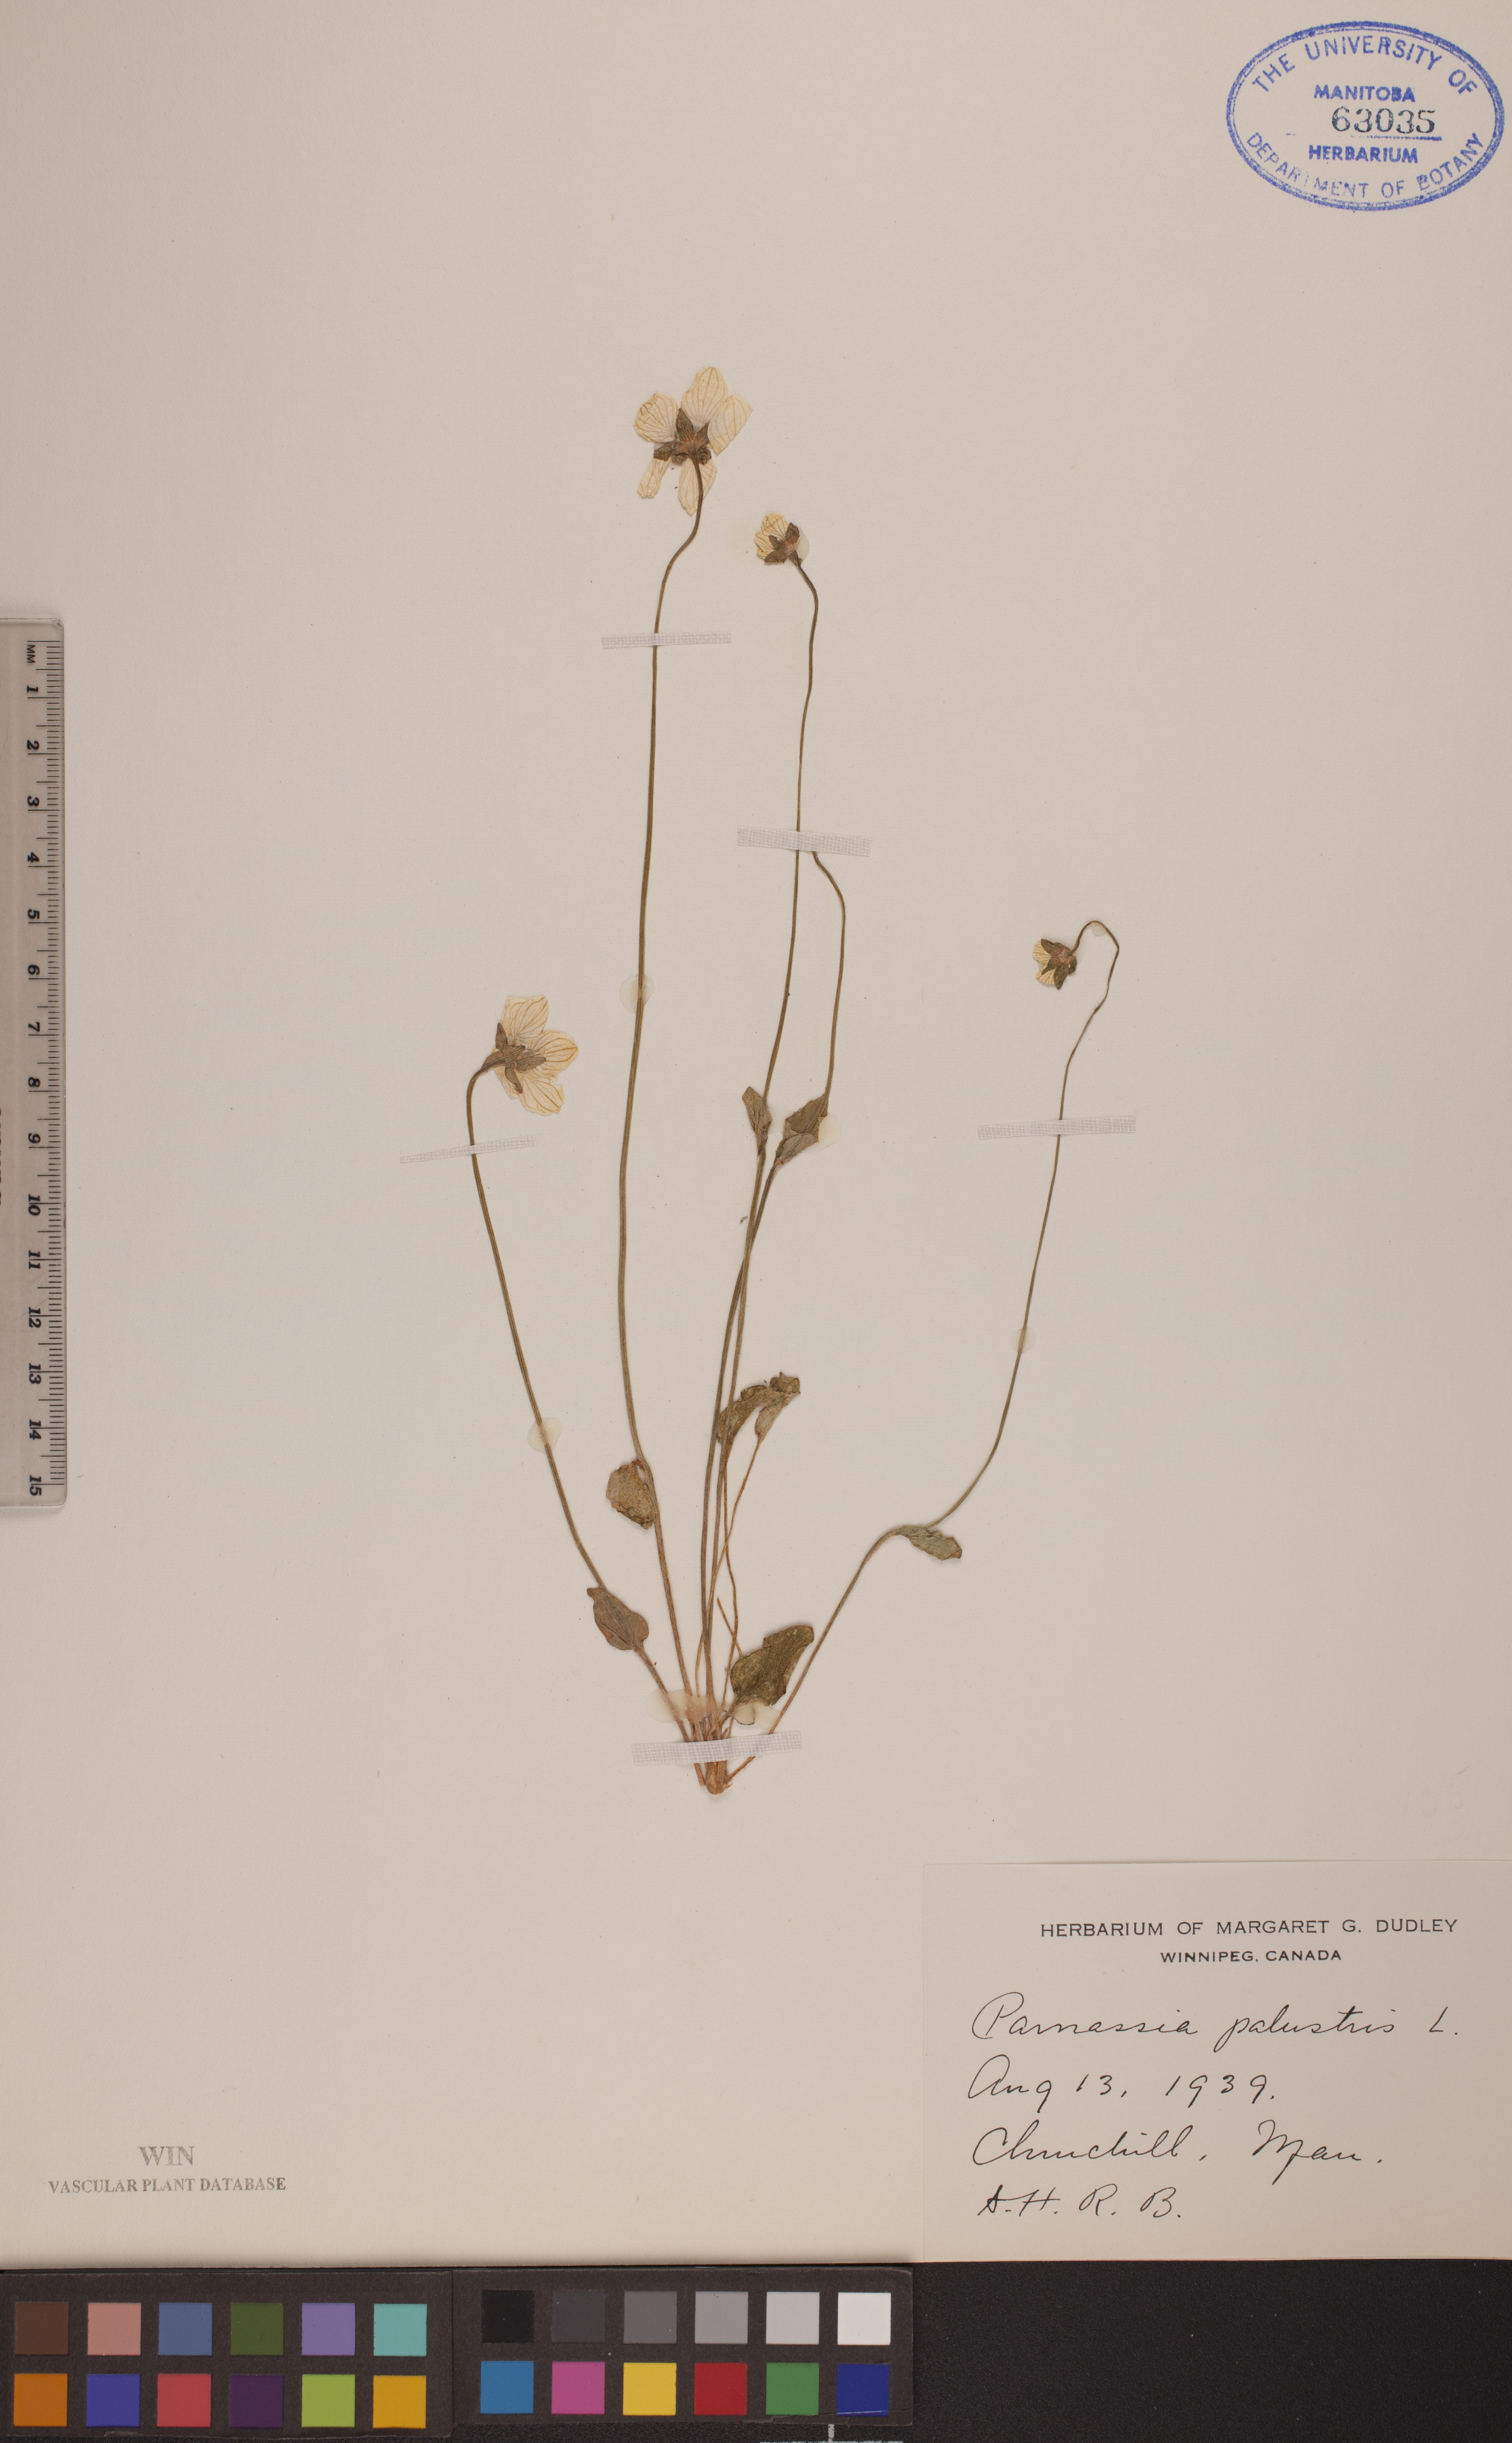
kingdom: Plantae
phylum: Tracheophyta
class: Magnoliopsida
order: Celastrales
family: Parnassiaceae
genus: Parnassia
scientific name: Parnassia palustris
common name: Grass-of-parnassus
